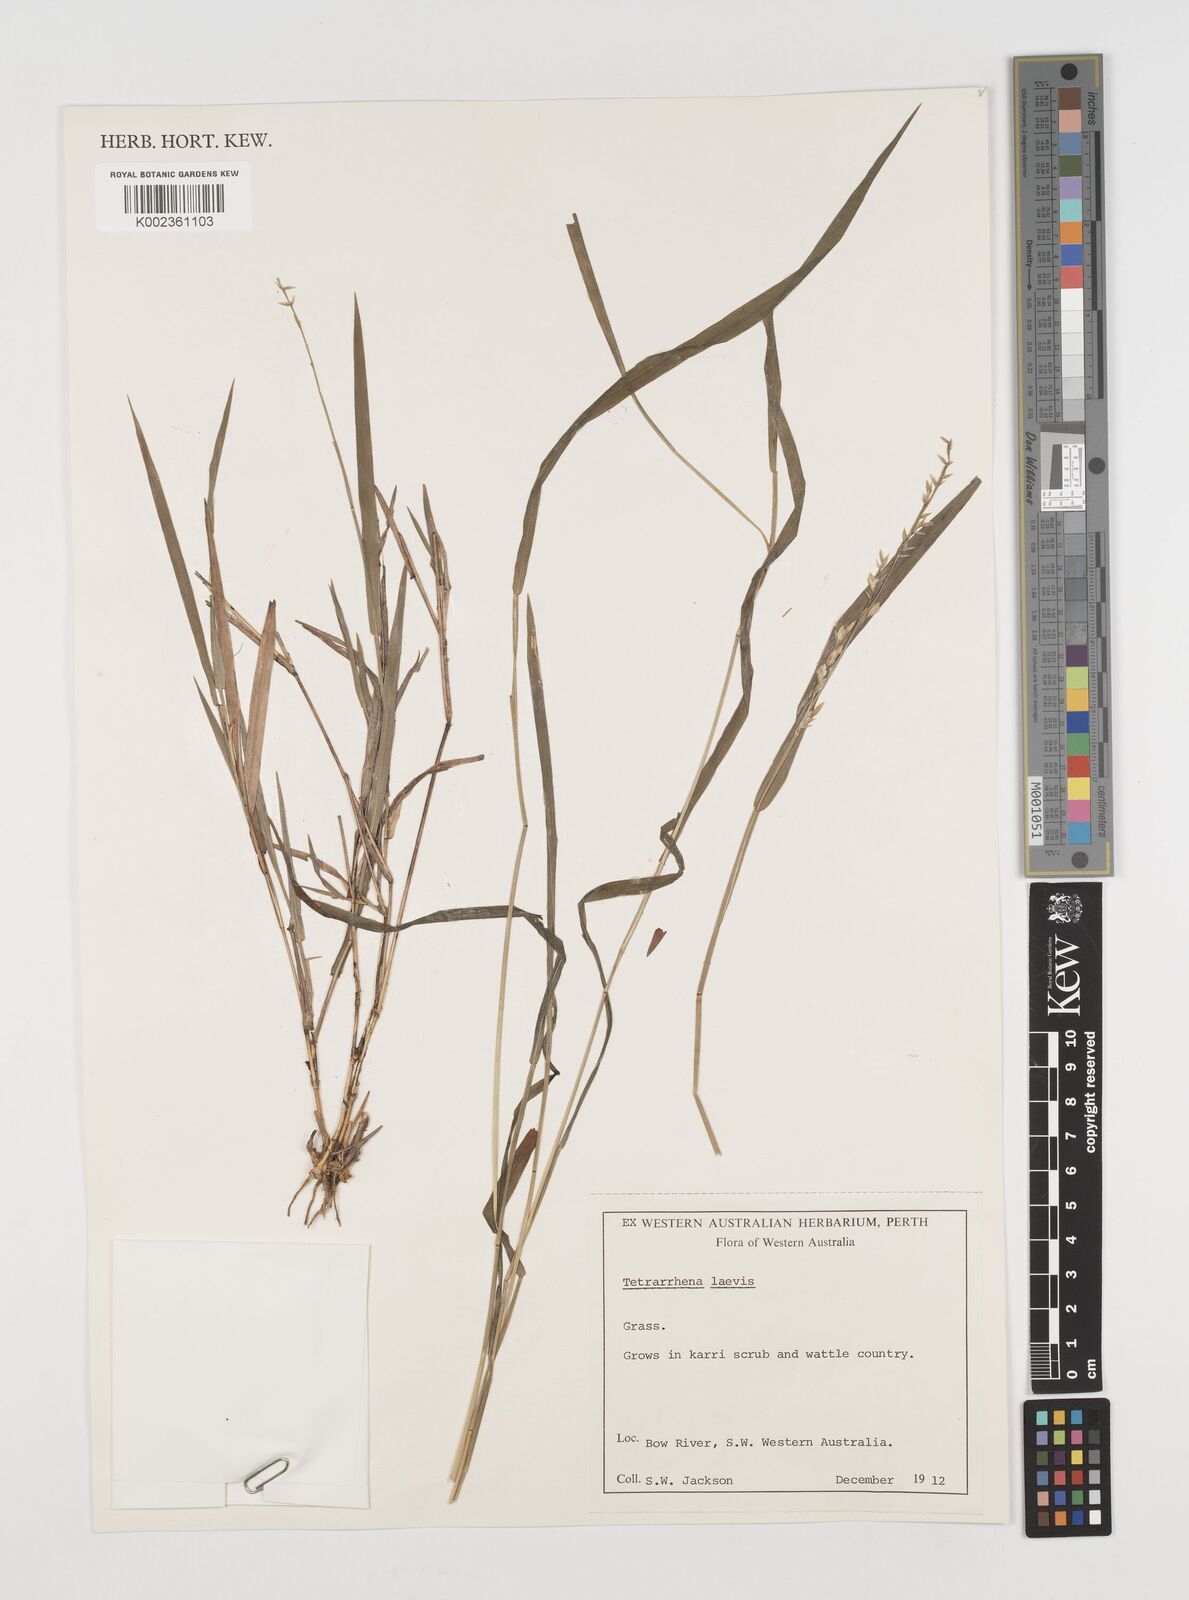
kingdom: Plantae
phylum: Tracheophyta
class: Liliopsida
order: Poales
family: Poaceae
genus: Tetrarrhena
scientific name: Tetrarrhena laevis
